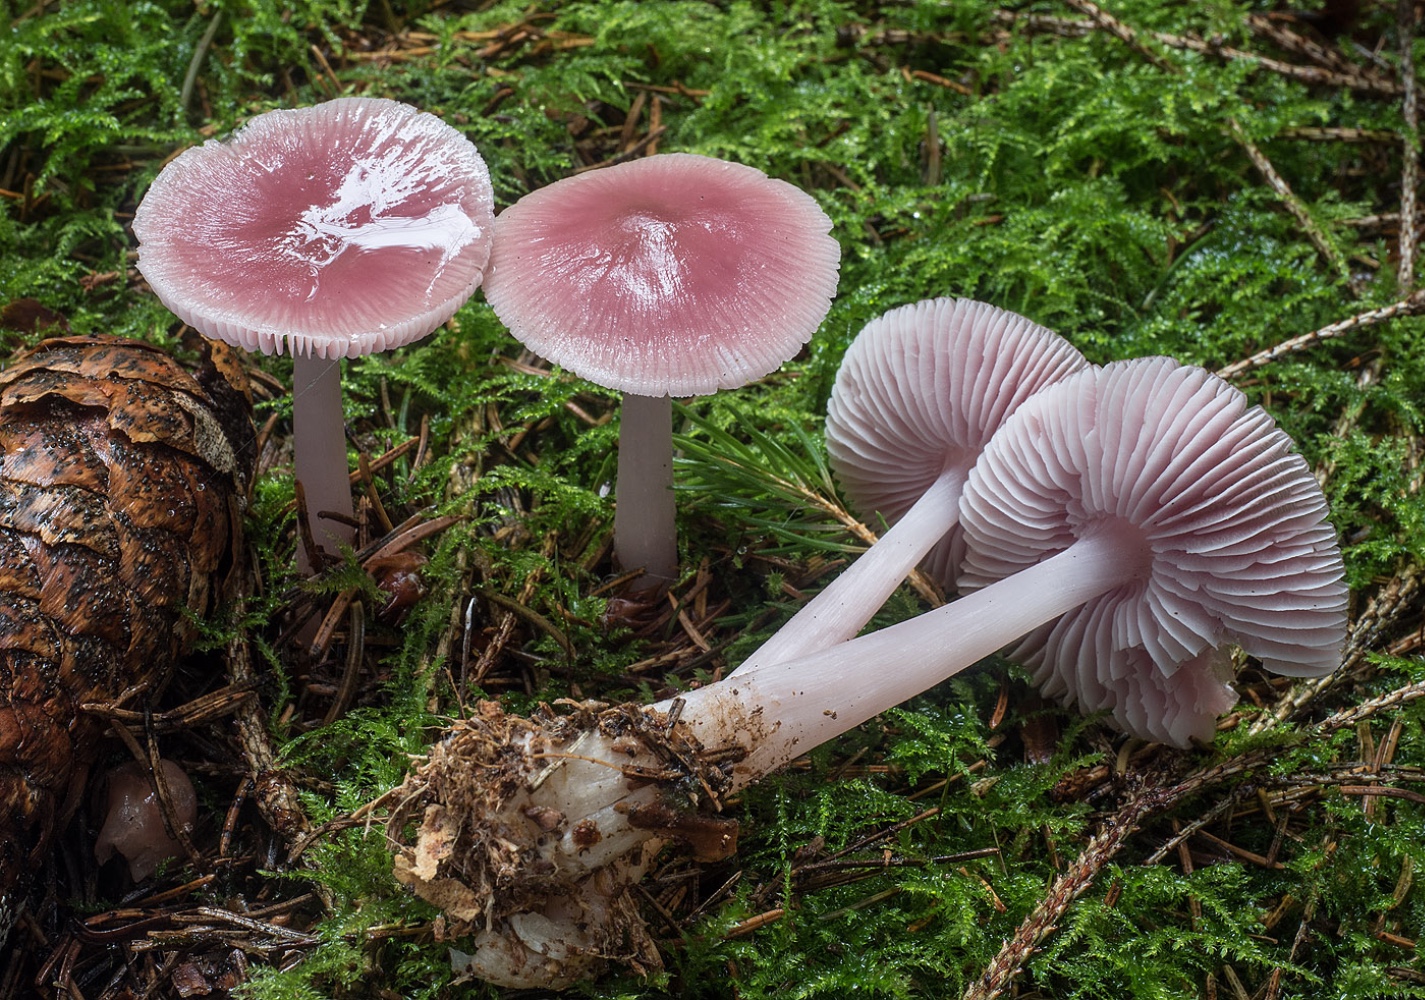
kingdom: Fungi
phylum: Basidiomycota
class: Agaricomycetes
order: Agaricales
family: Mycenaceae
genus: Mycena
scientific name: Mycena rosea
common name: rosa huesvamp
